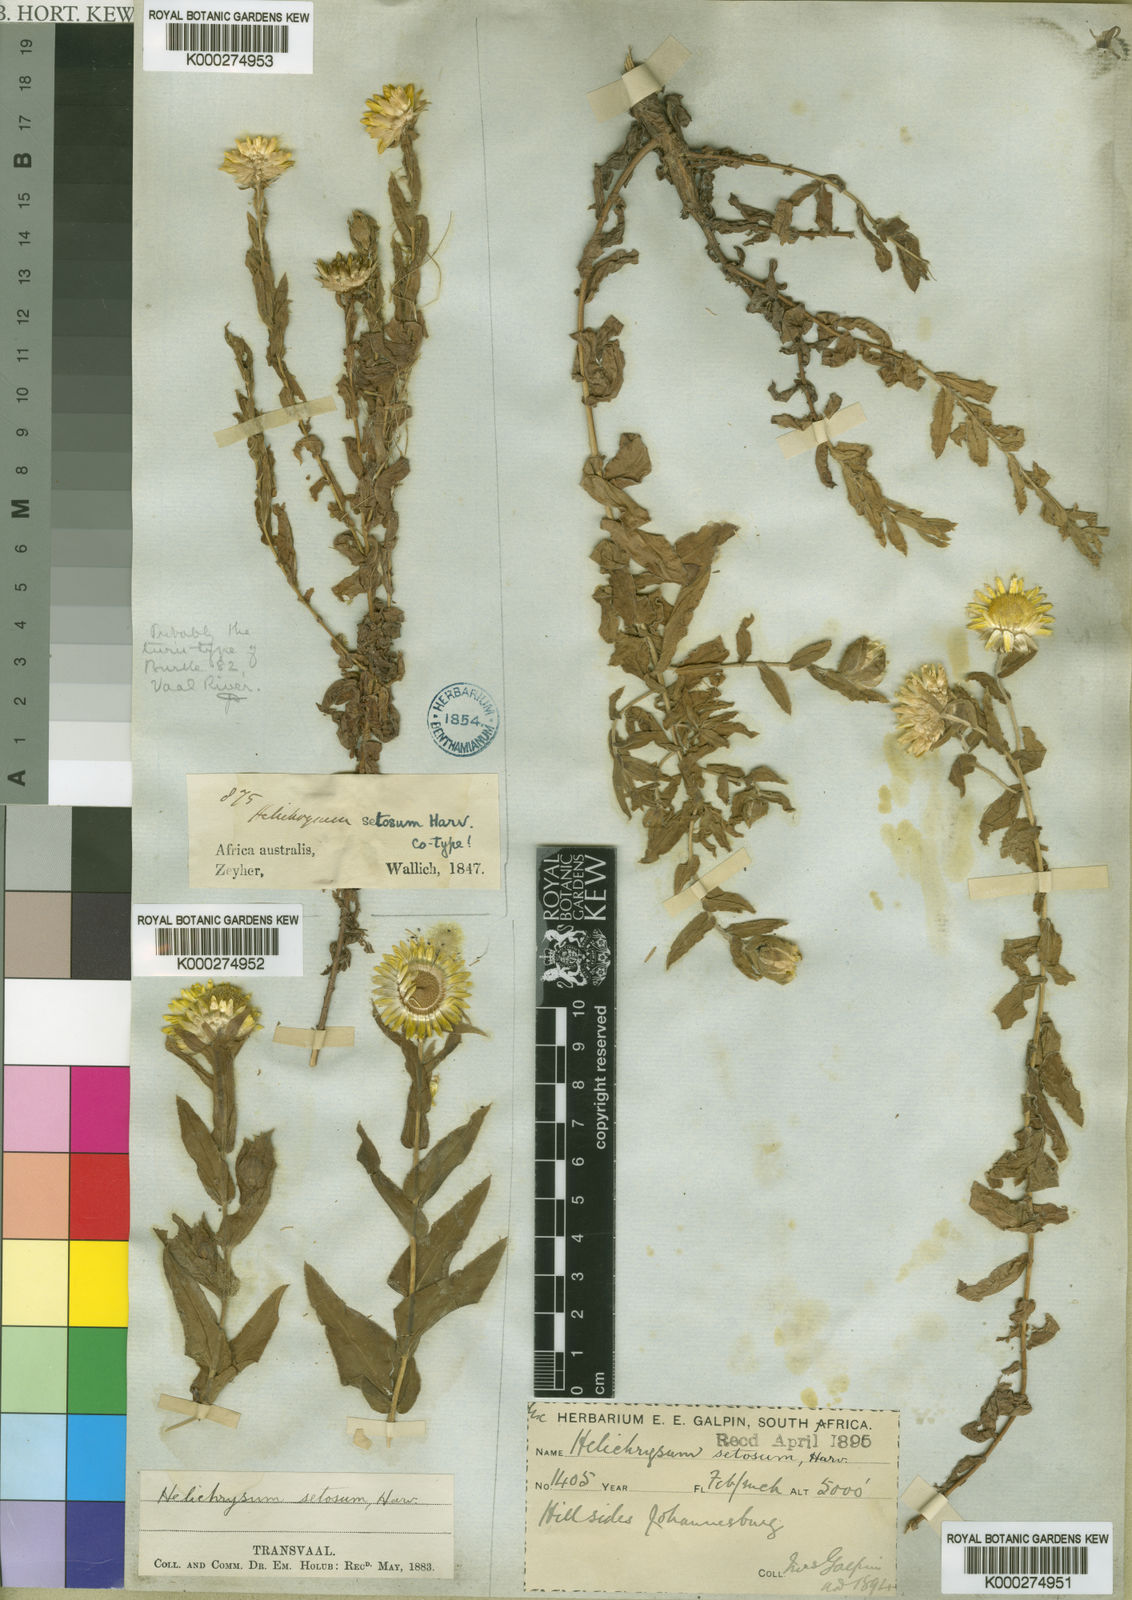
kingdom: Plantae
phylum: Tracheophyta
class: Magnoliopsida
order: Asterales
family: Asteraceae
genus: Helichrysum
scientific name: Helichrysum setosum
